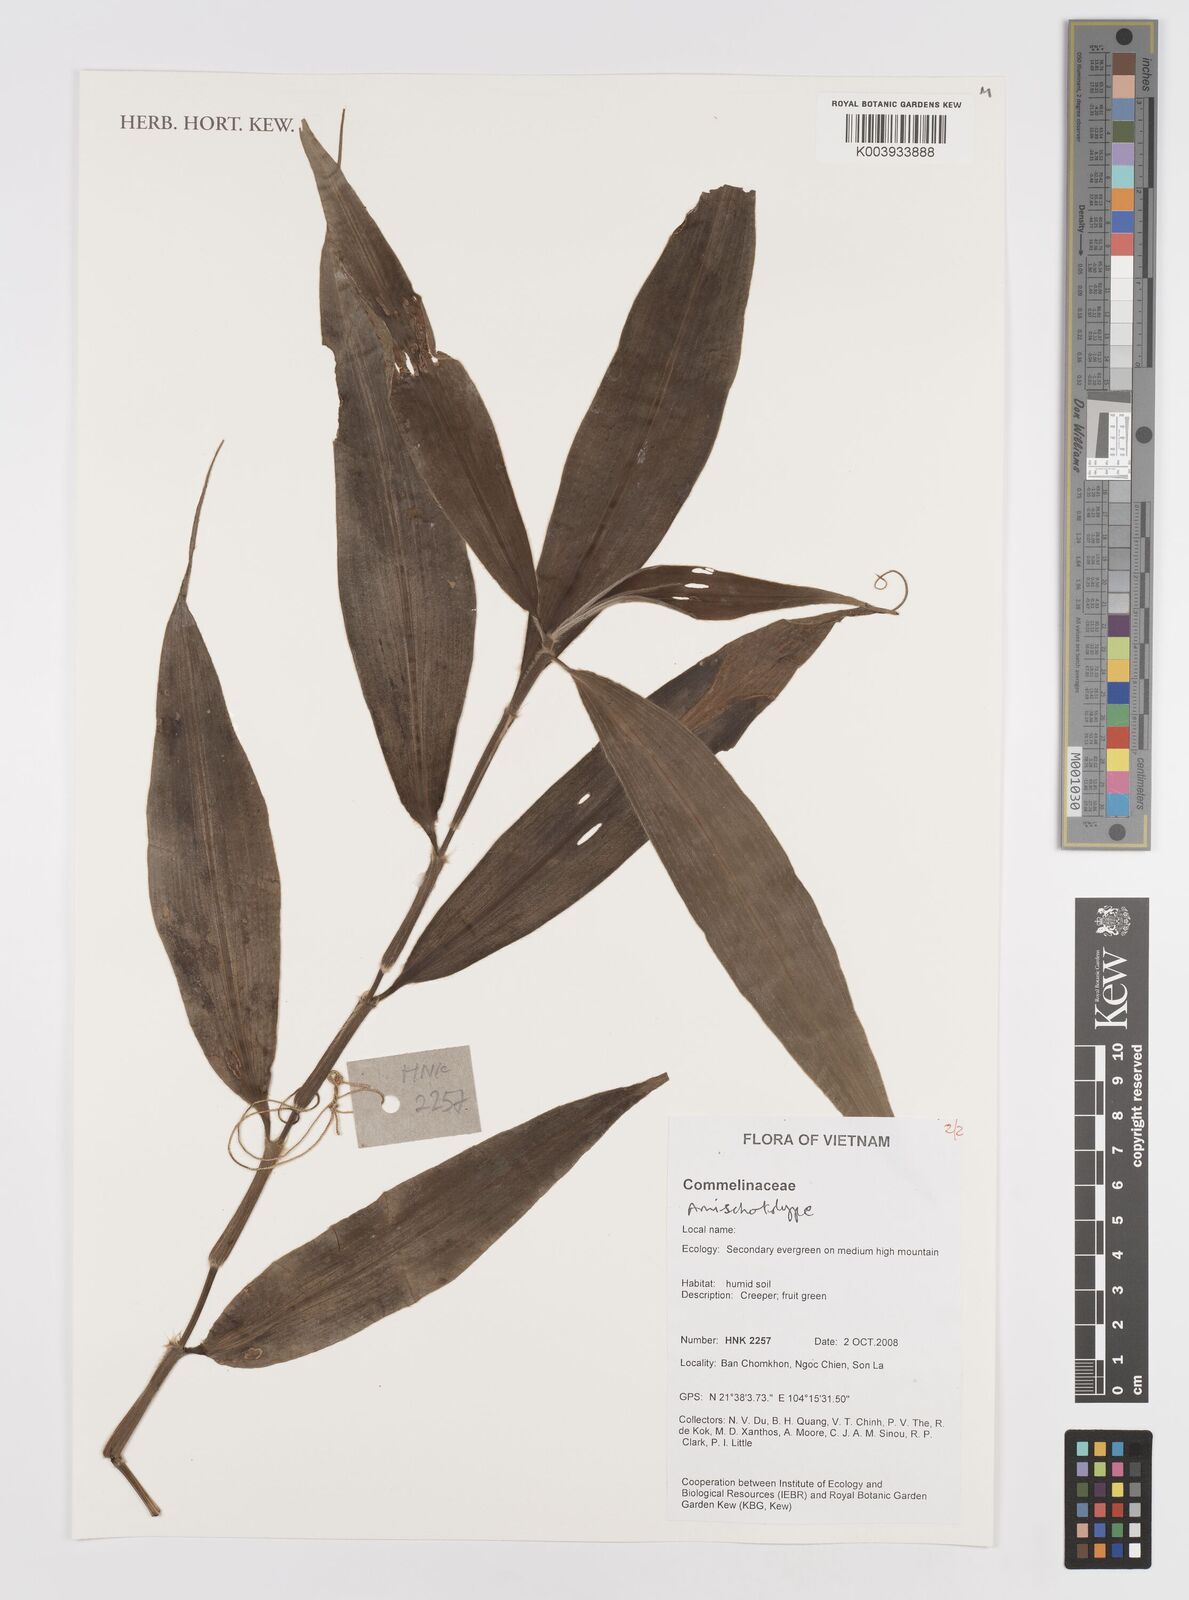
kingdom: Plantae
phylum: Tracheophyta
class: Liliopsida
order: Commelinales
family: Commelinaceae
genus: Amischotolype
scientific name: Amischotolype
